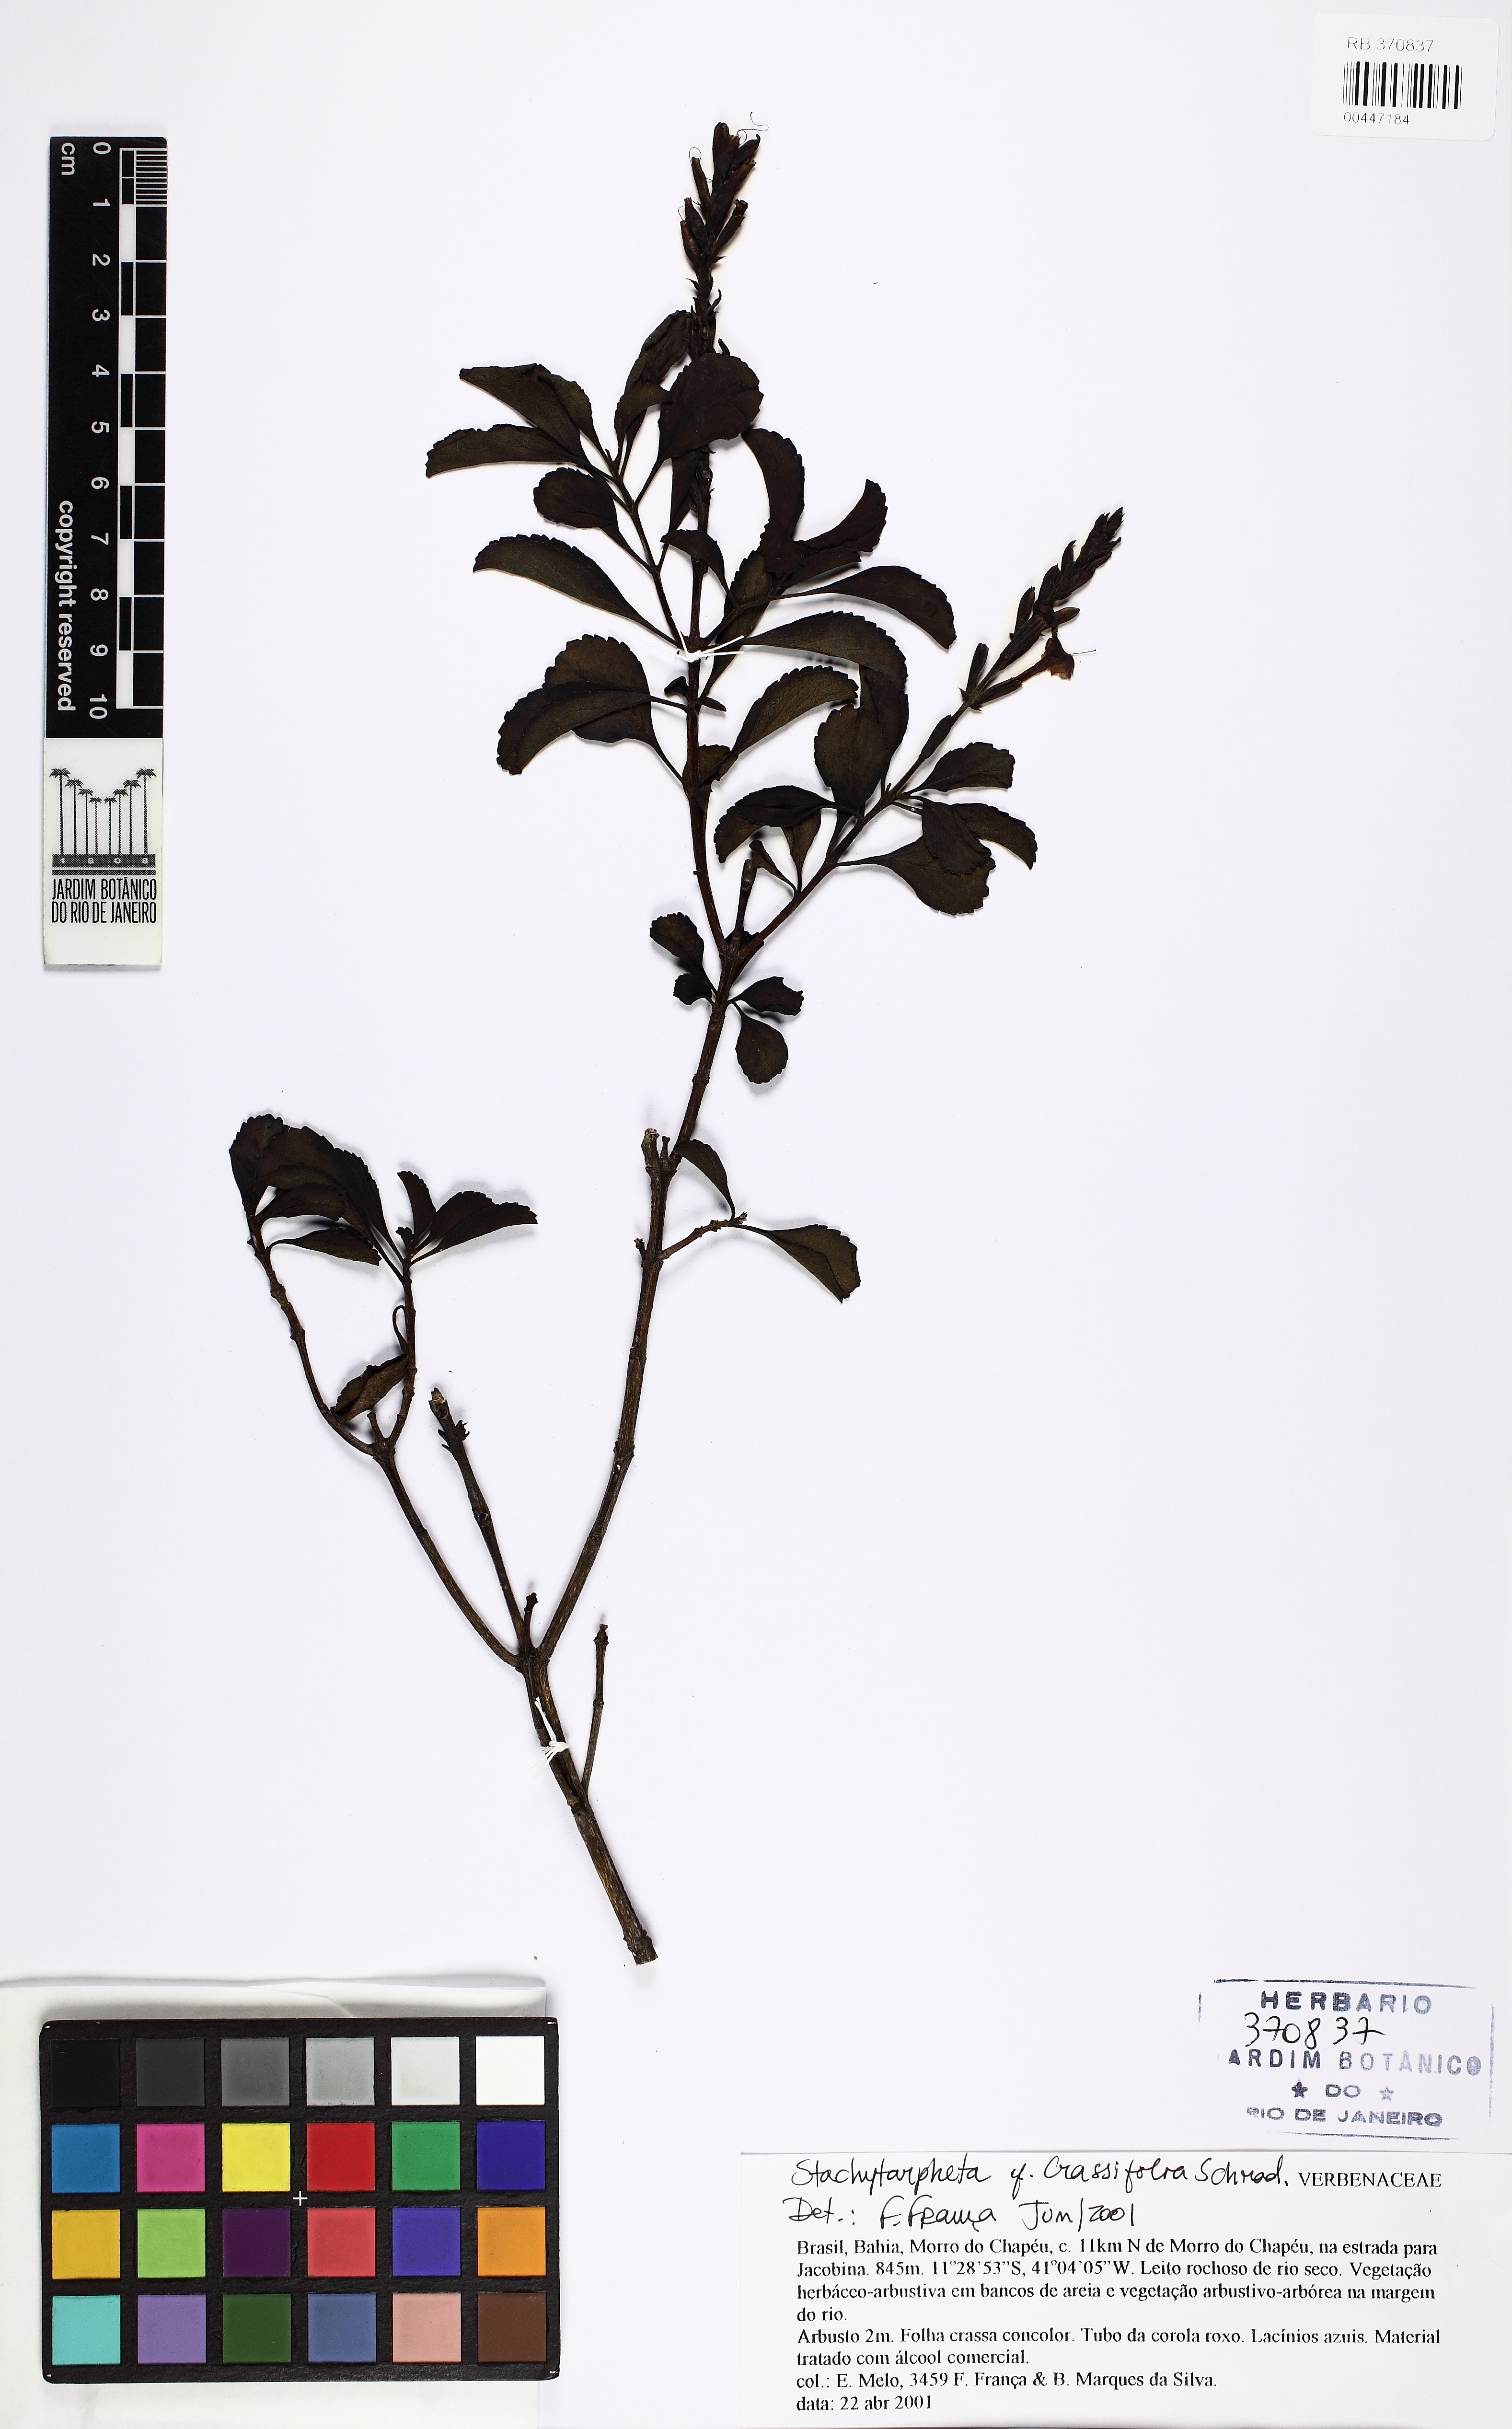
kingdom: Plantae
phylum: Tracheophyta
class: Magnoliopsida
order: Lamiales
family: Verbenaceae
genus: Stachytarpheta
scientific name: Stachytarpheta martiana
